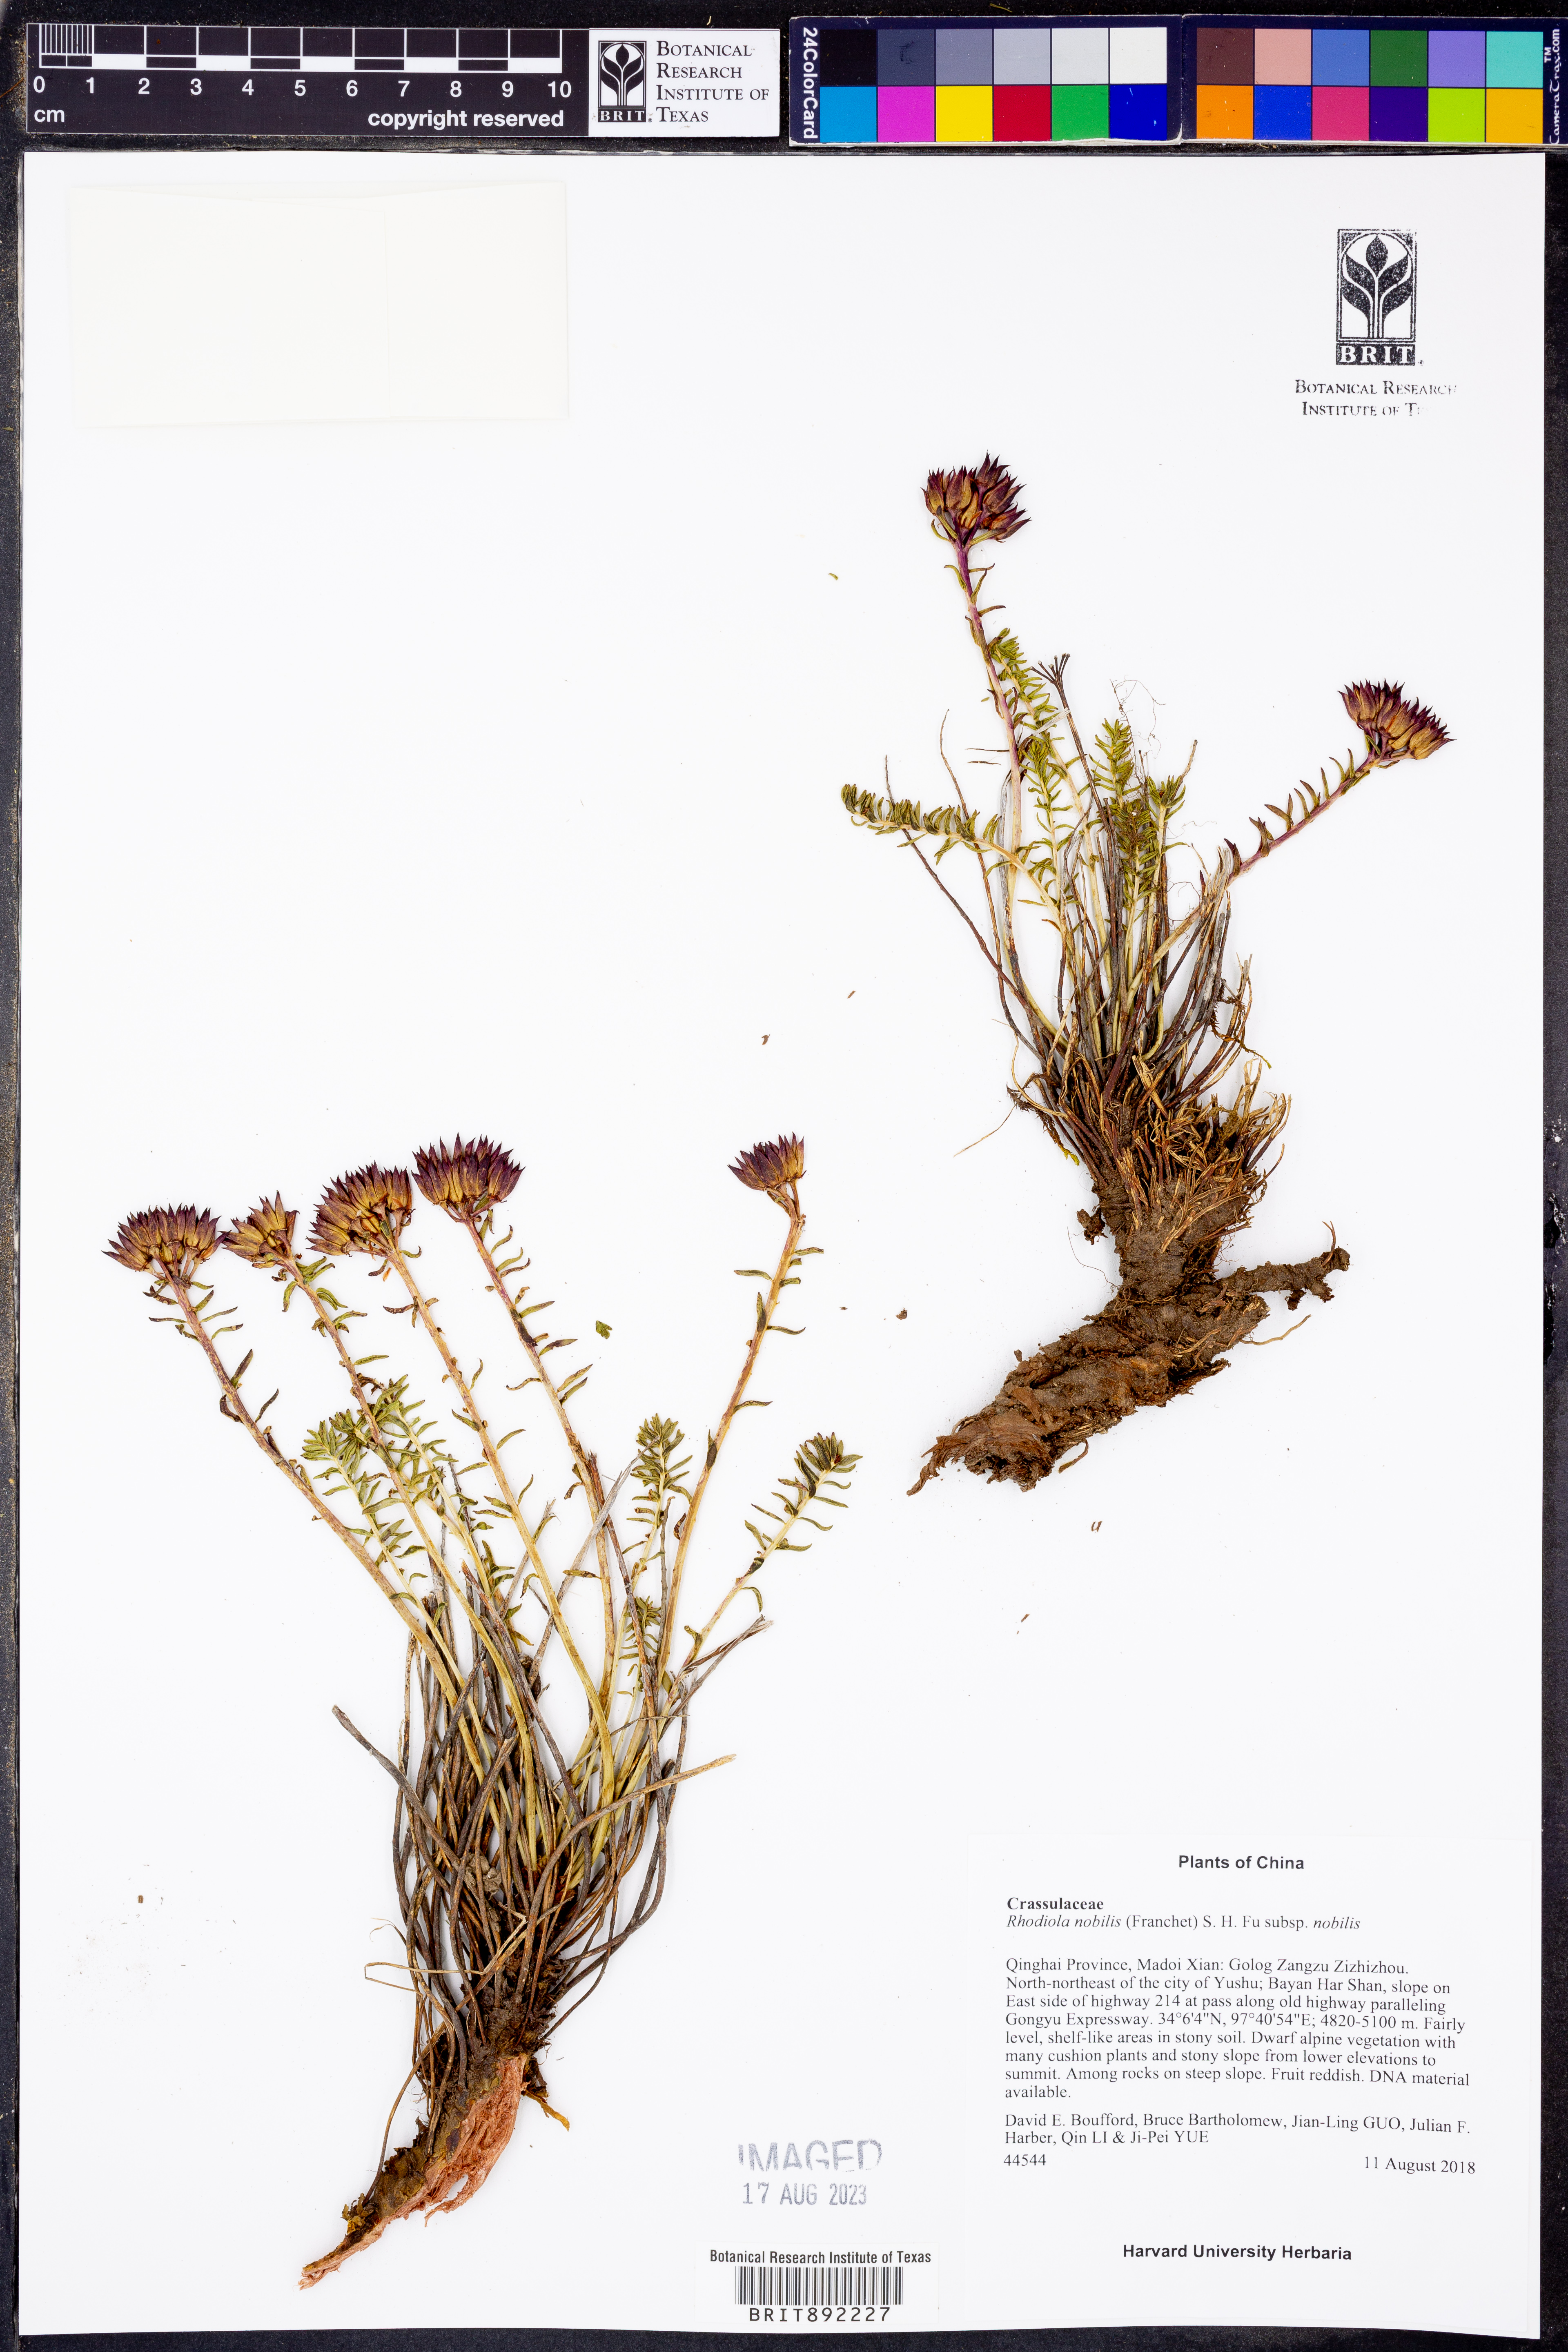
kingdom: Plantae
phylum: Tracheophyta
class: Magnoliopsida
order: Saxifragales
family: Crassulaceae
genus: Rhodiola
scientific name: Rhodiola nobilis
